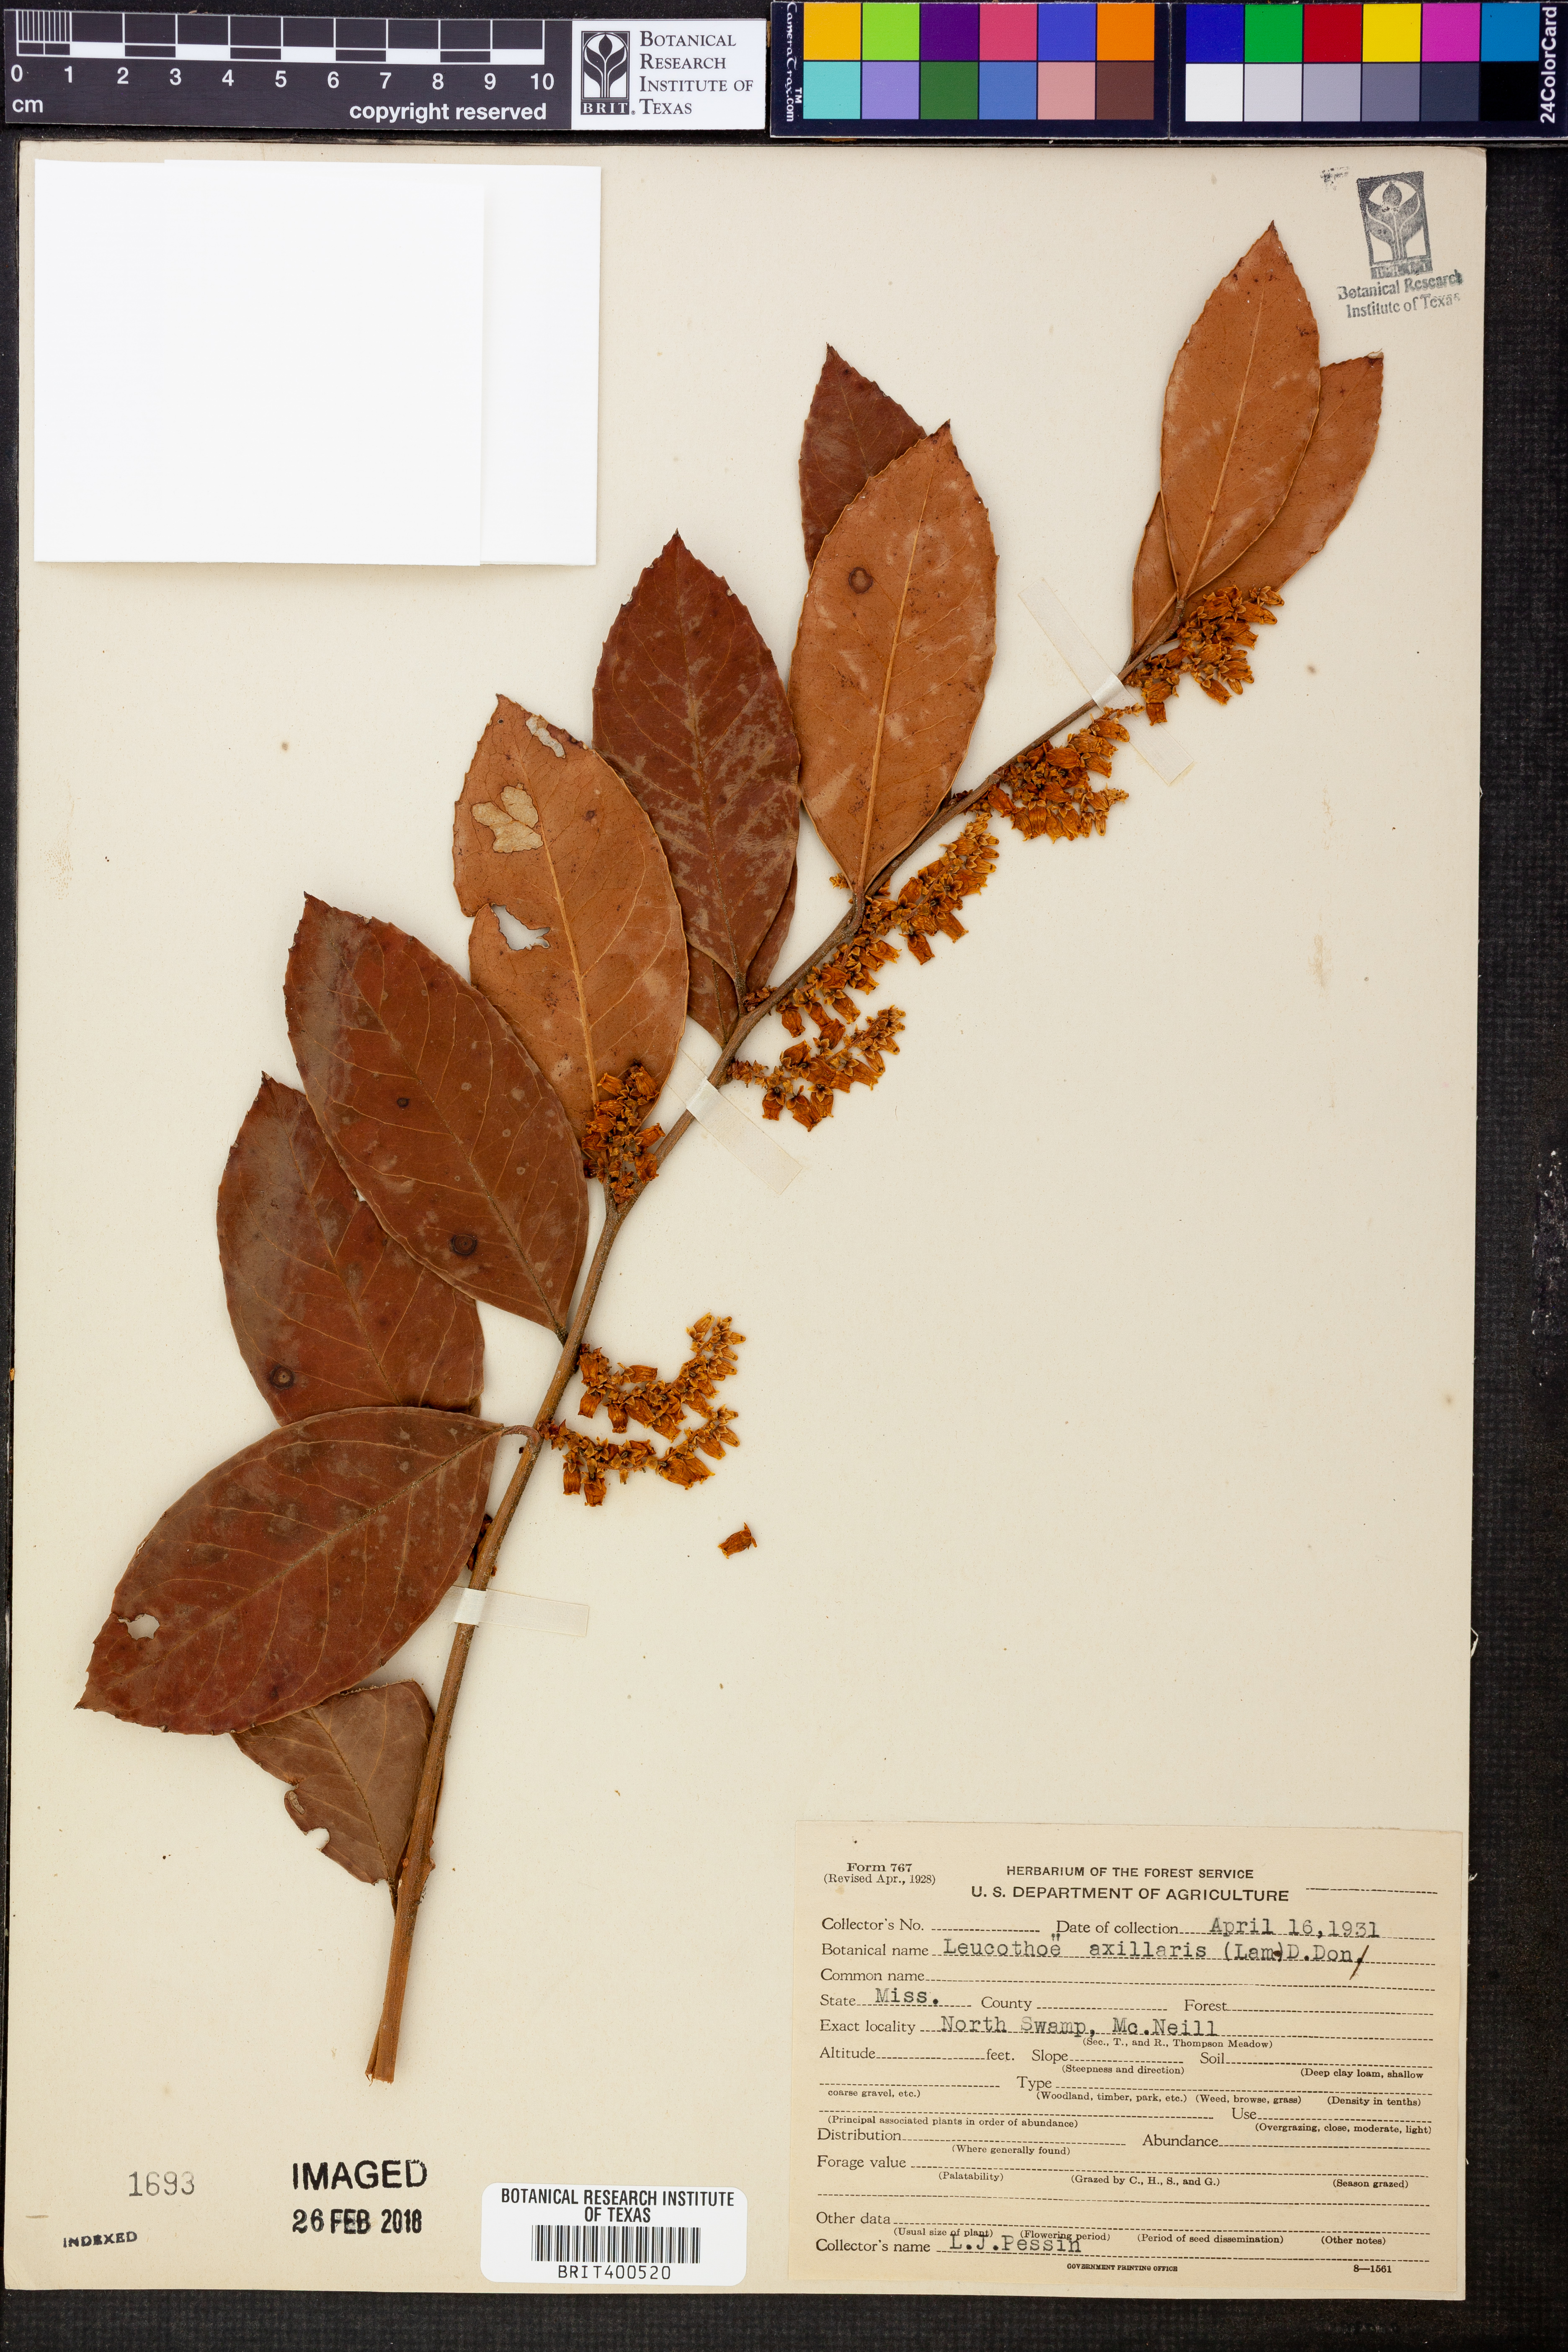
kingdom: Plantae
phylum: Tracheophyta
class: Magnoliopsida
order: Ericales
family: Ericaceae
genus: Leucothoe
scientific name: Leucothoe axillaris
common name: Leucothoe
